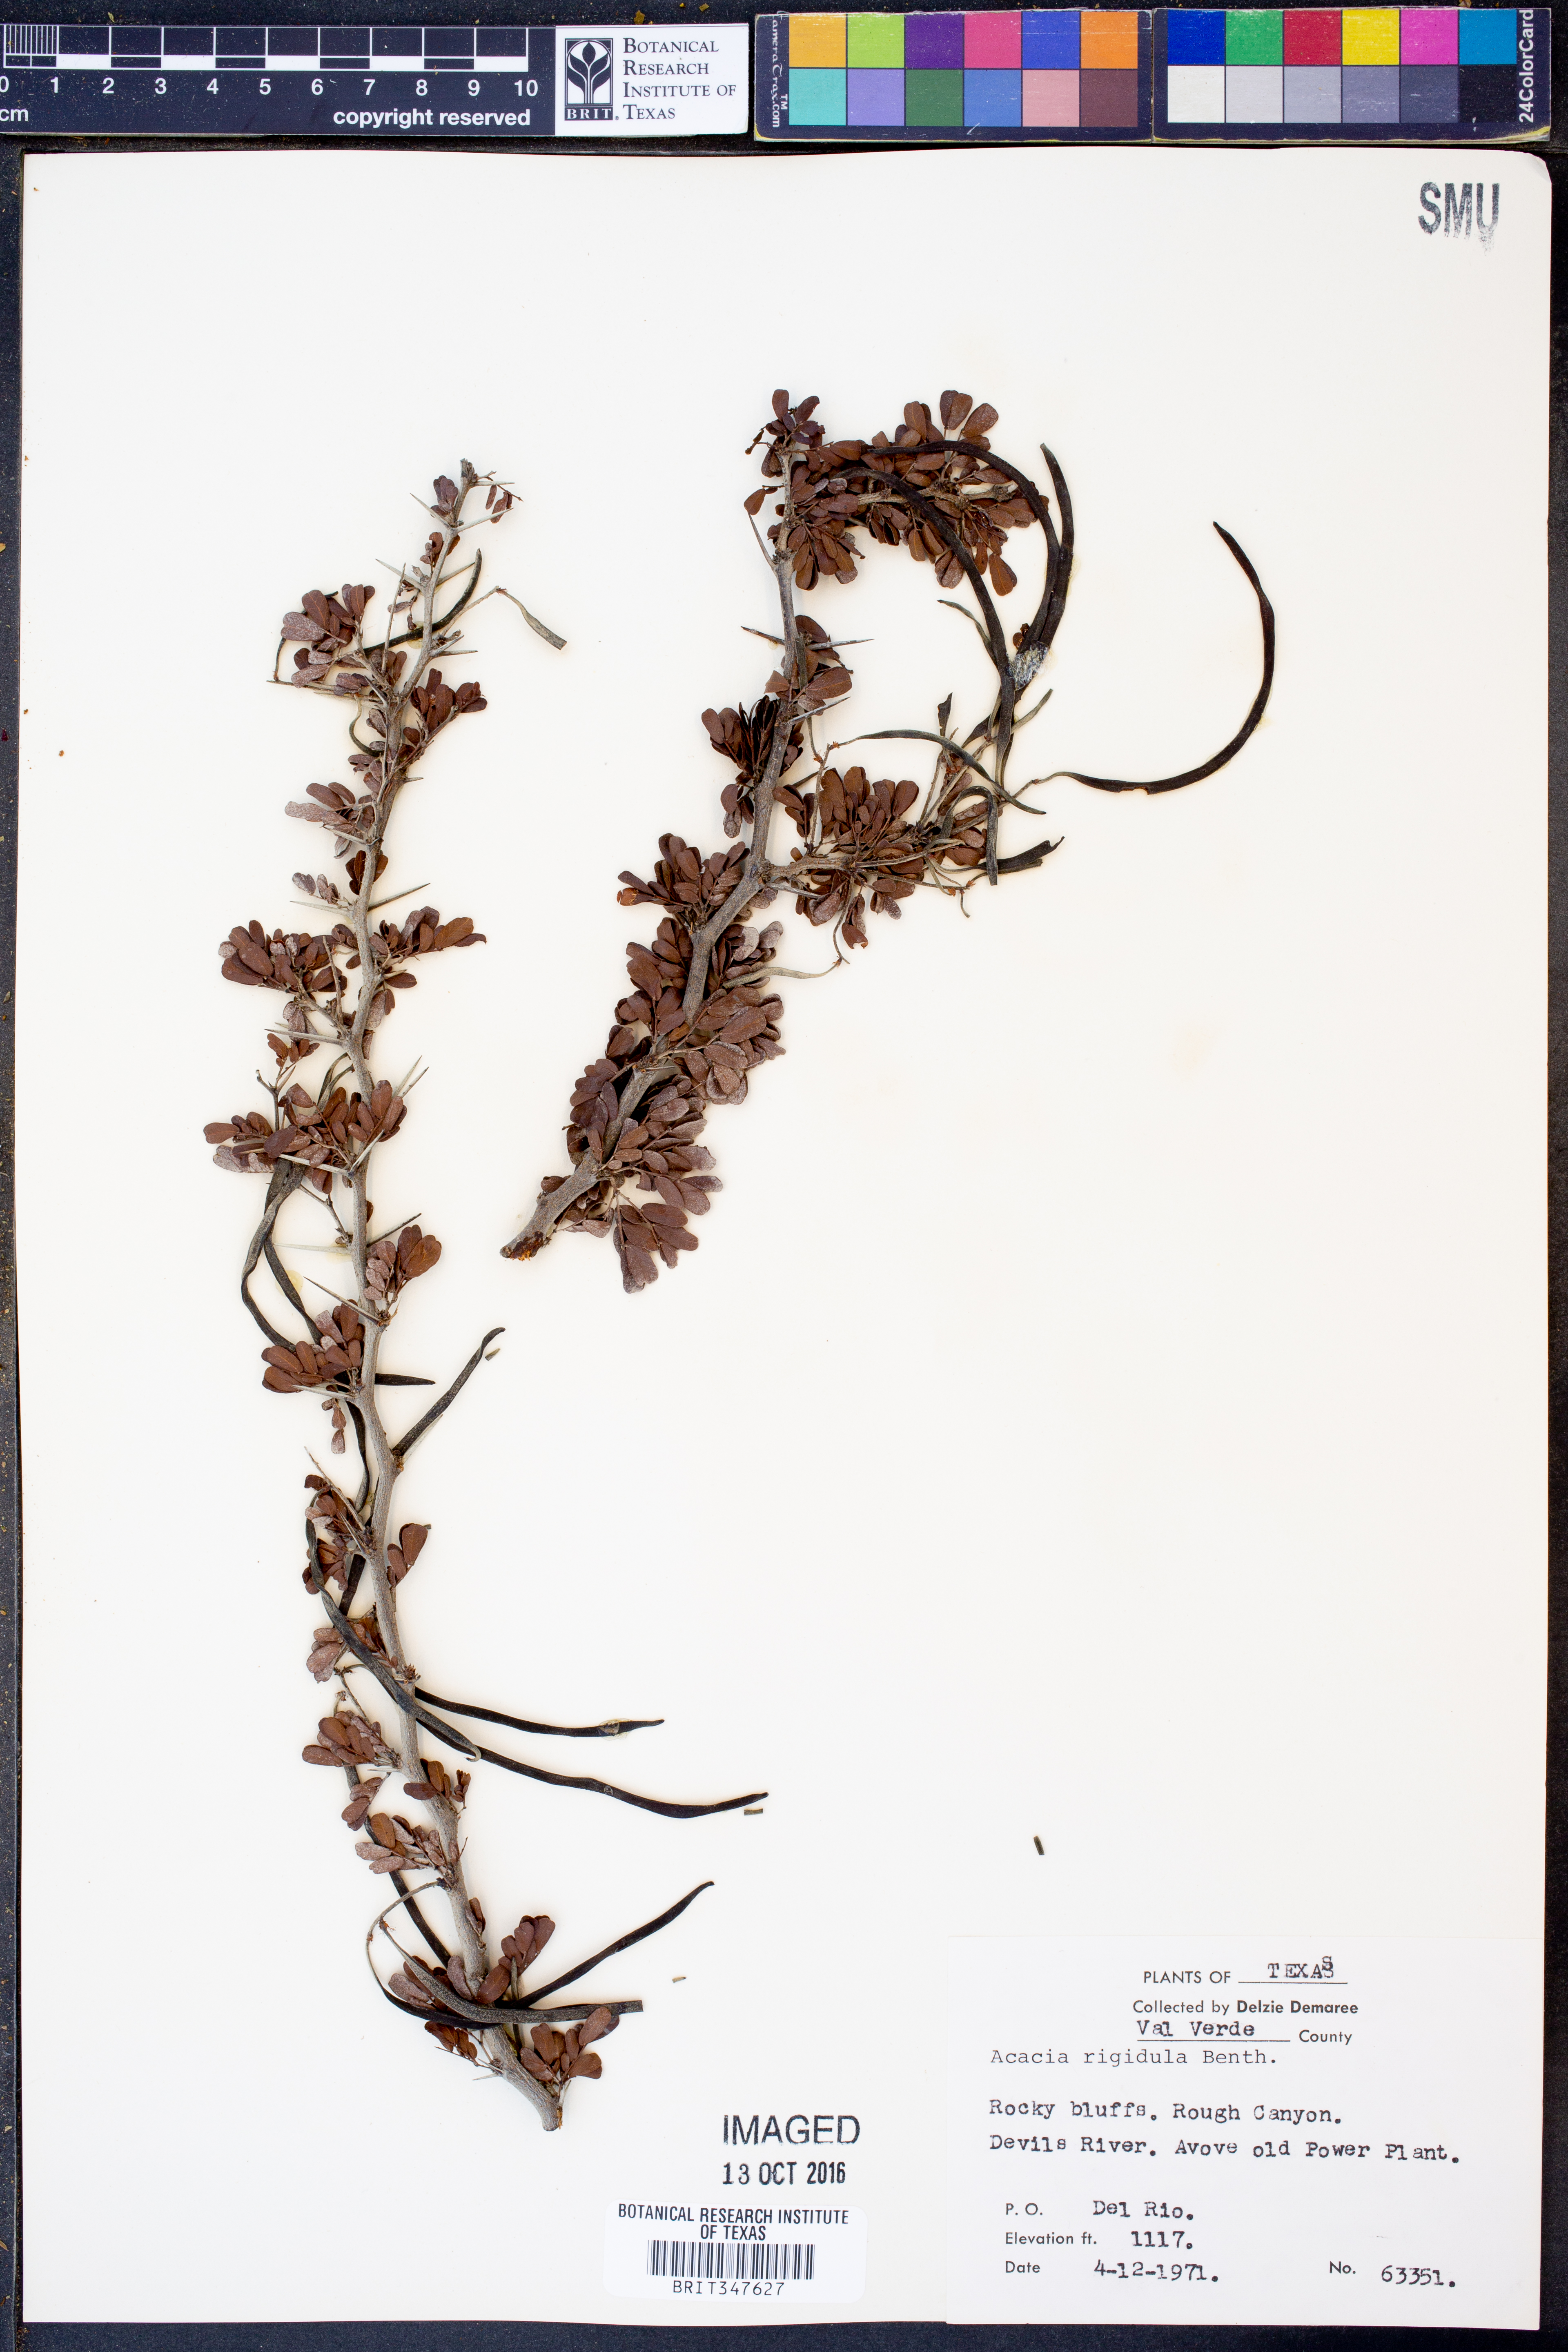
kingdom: Plantae
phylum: Tracheophyta
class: Magnoliopsida
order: Fabales
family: Fabaceae
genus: Vachellia
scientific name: Vachellia rigidula
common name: Blackbrush
